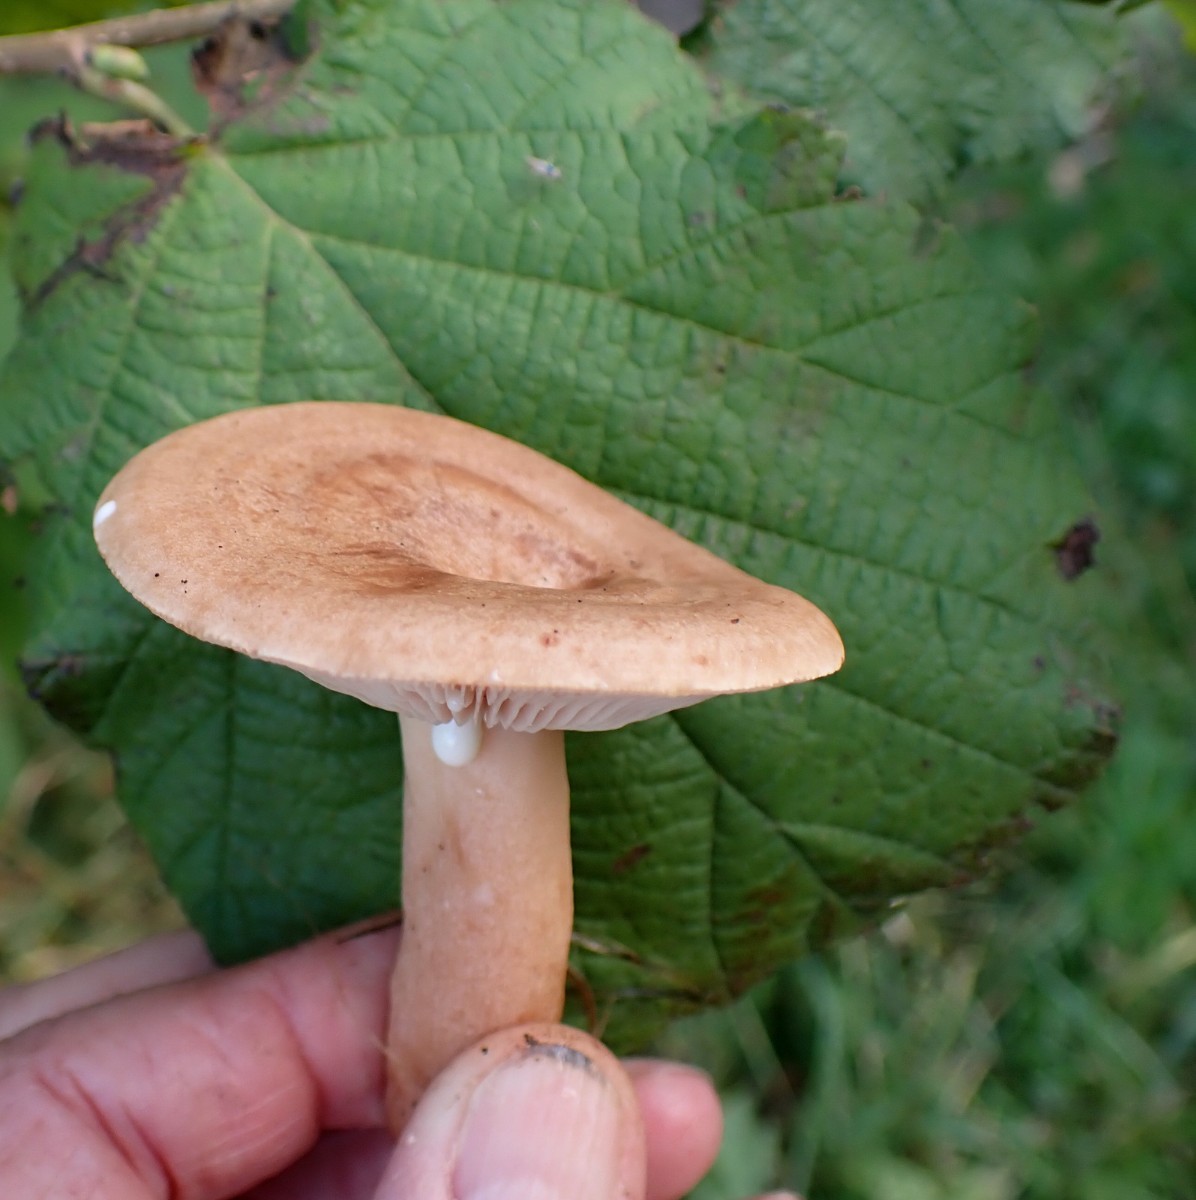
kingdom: Fungi
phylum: Basidiomycota
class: Agaricomycetes
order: Russulales
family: Russulaceae
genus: Lactarius
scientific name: Lactarius quietus
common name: ege-mælkehat
